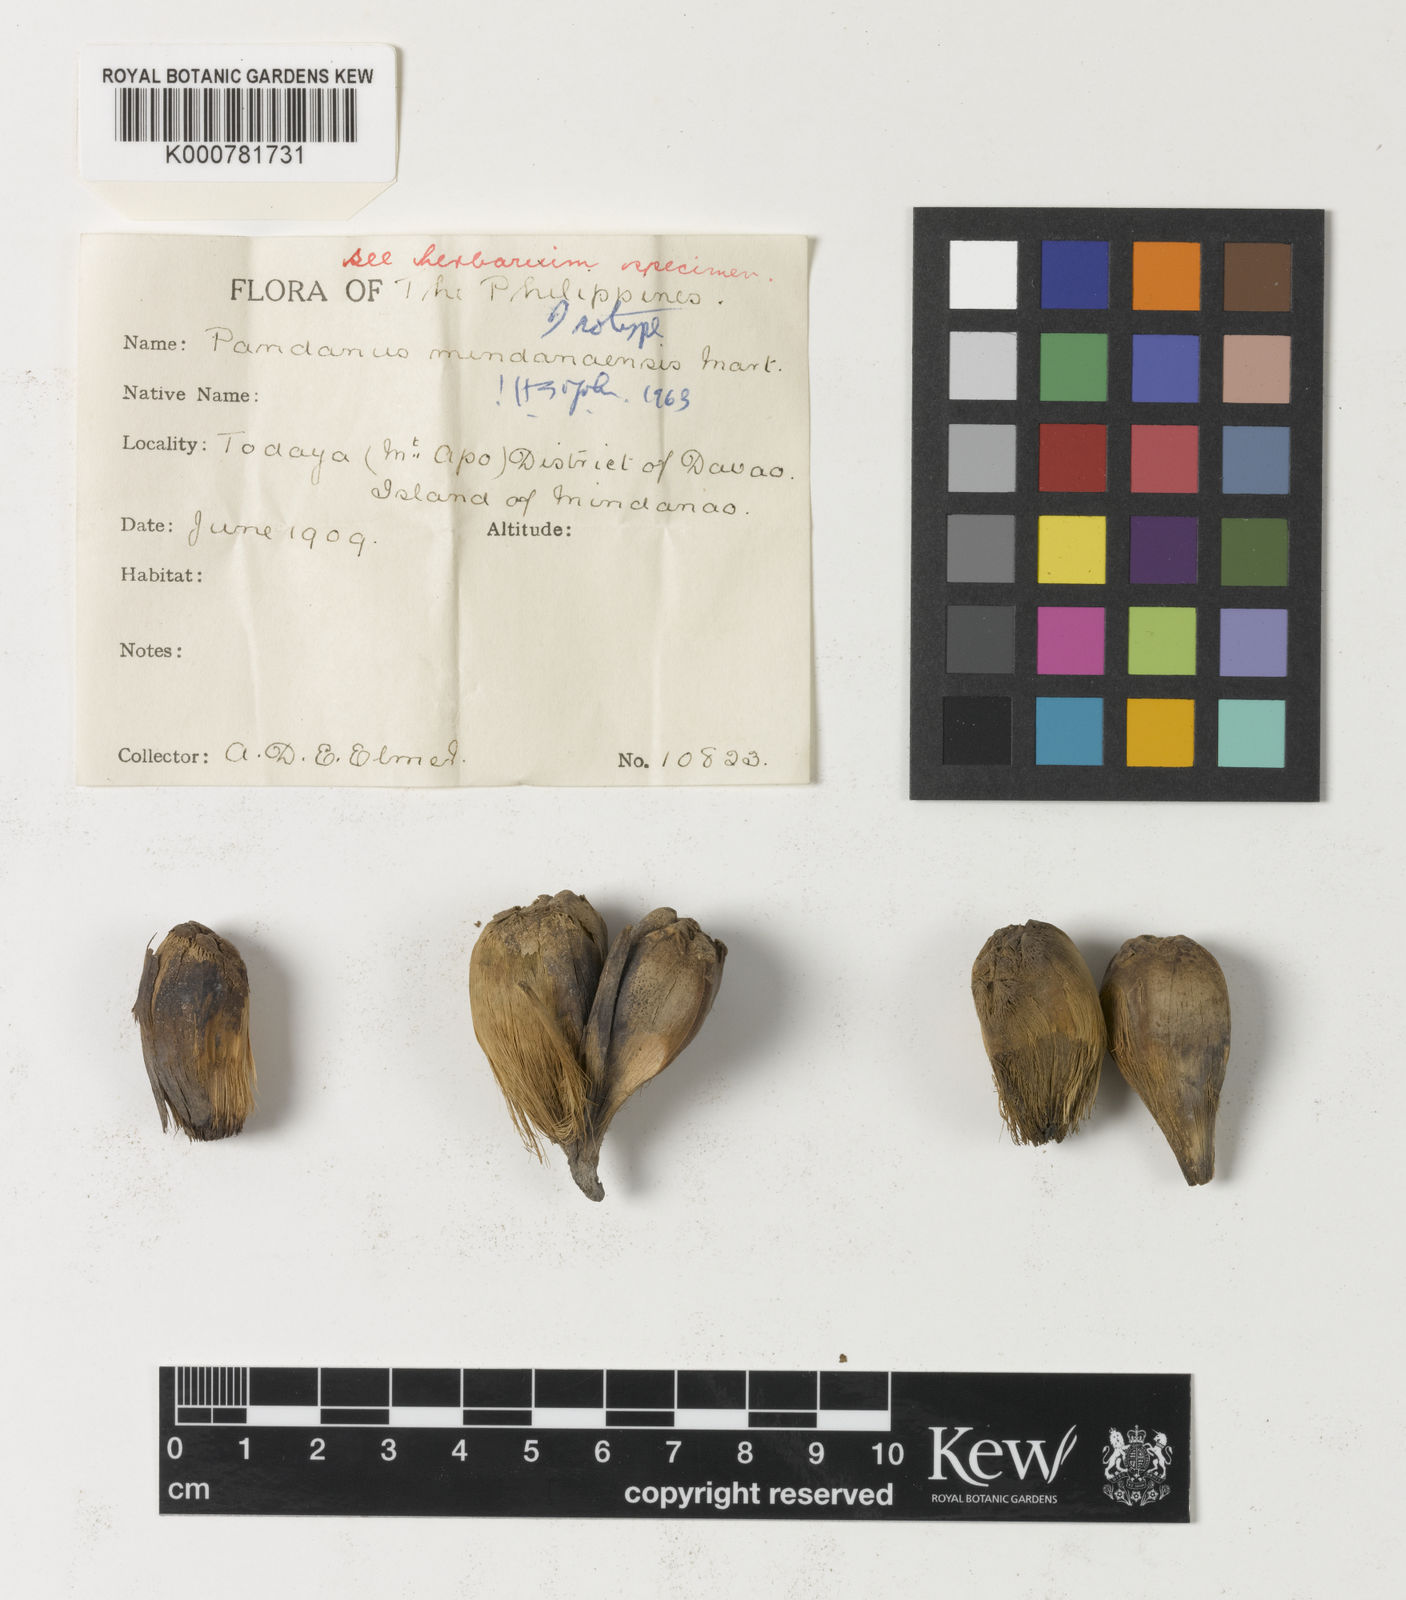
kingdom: Plantae
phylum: Tracheophyta
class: Liliopsida
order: Pandanales
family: Pandanaceae
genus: Pandanus
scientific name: Pandanus mindanaensis
